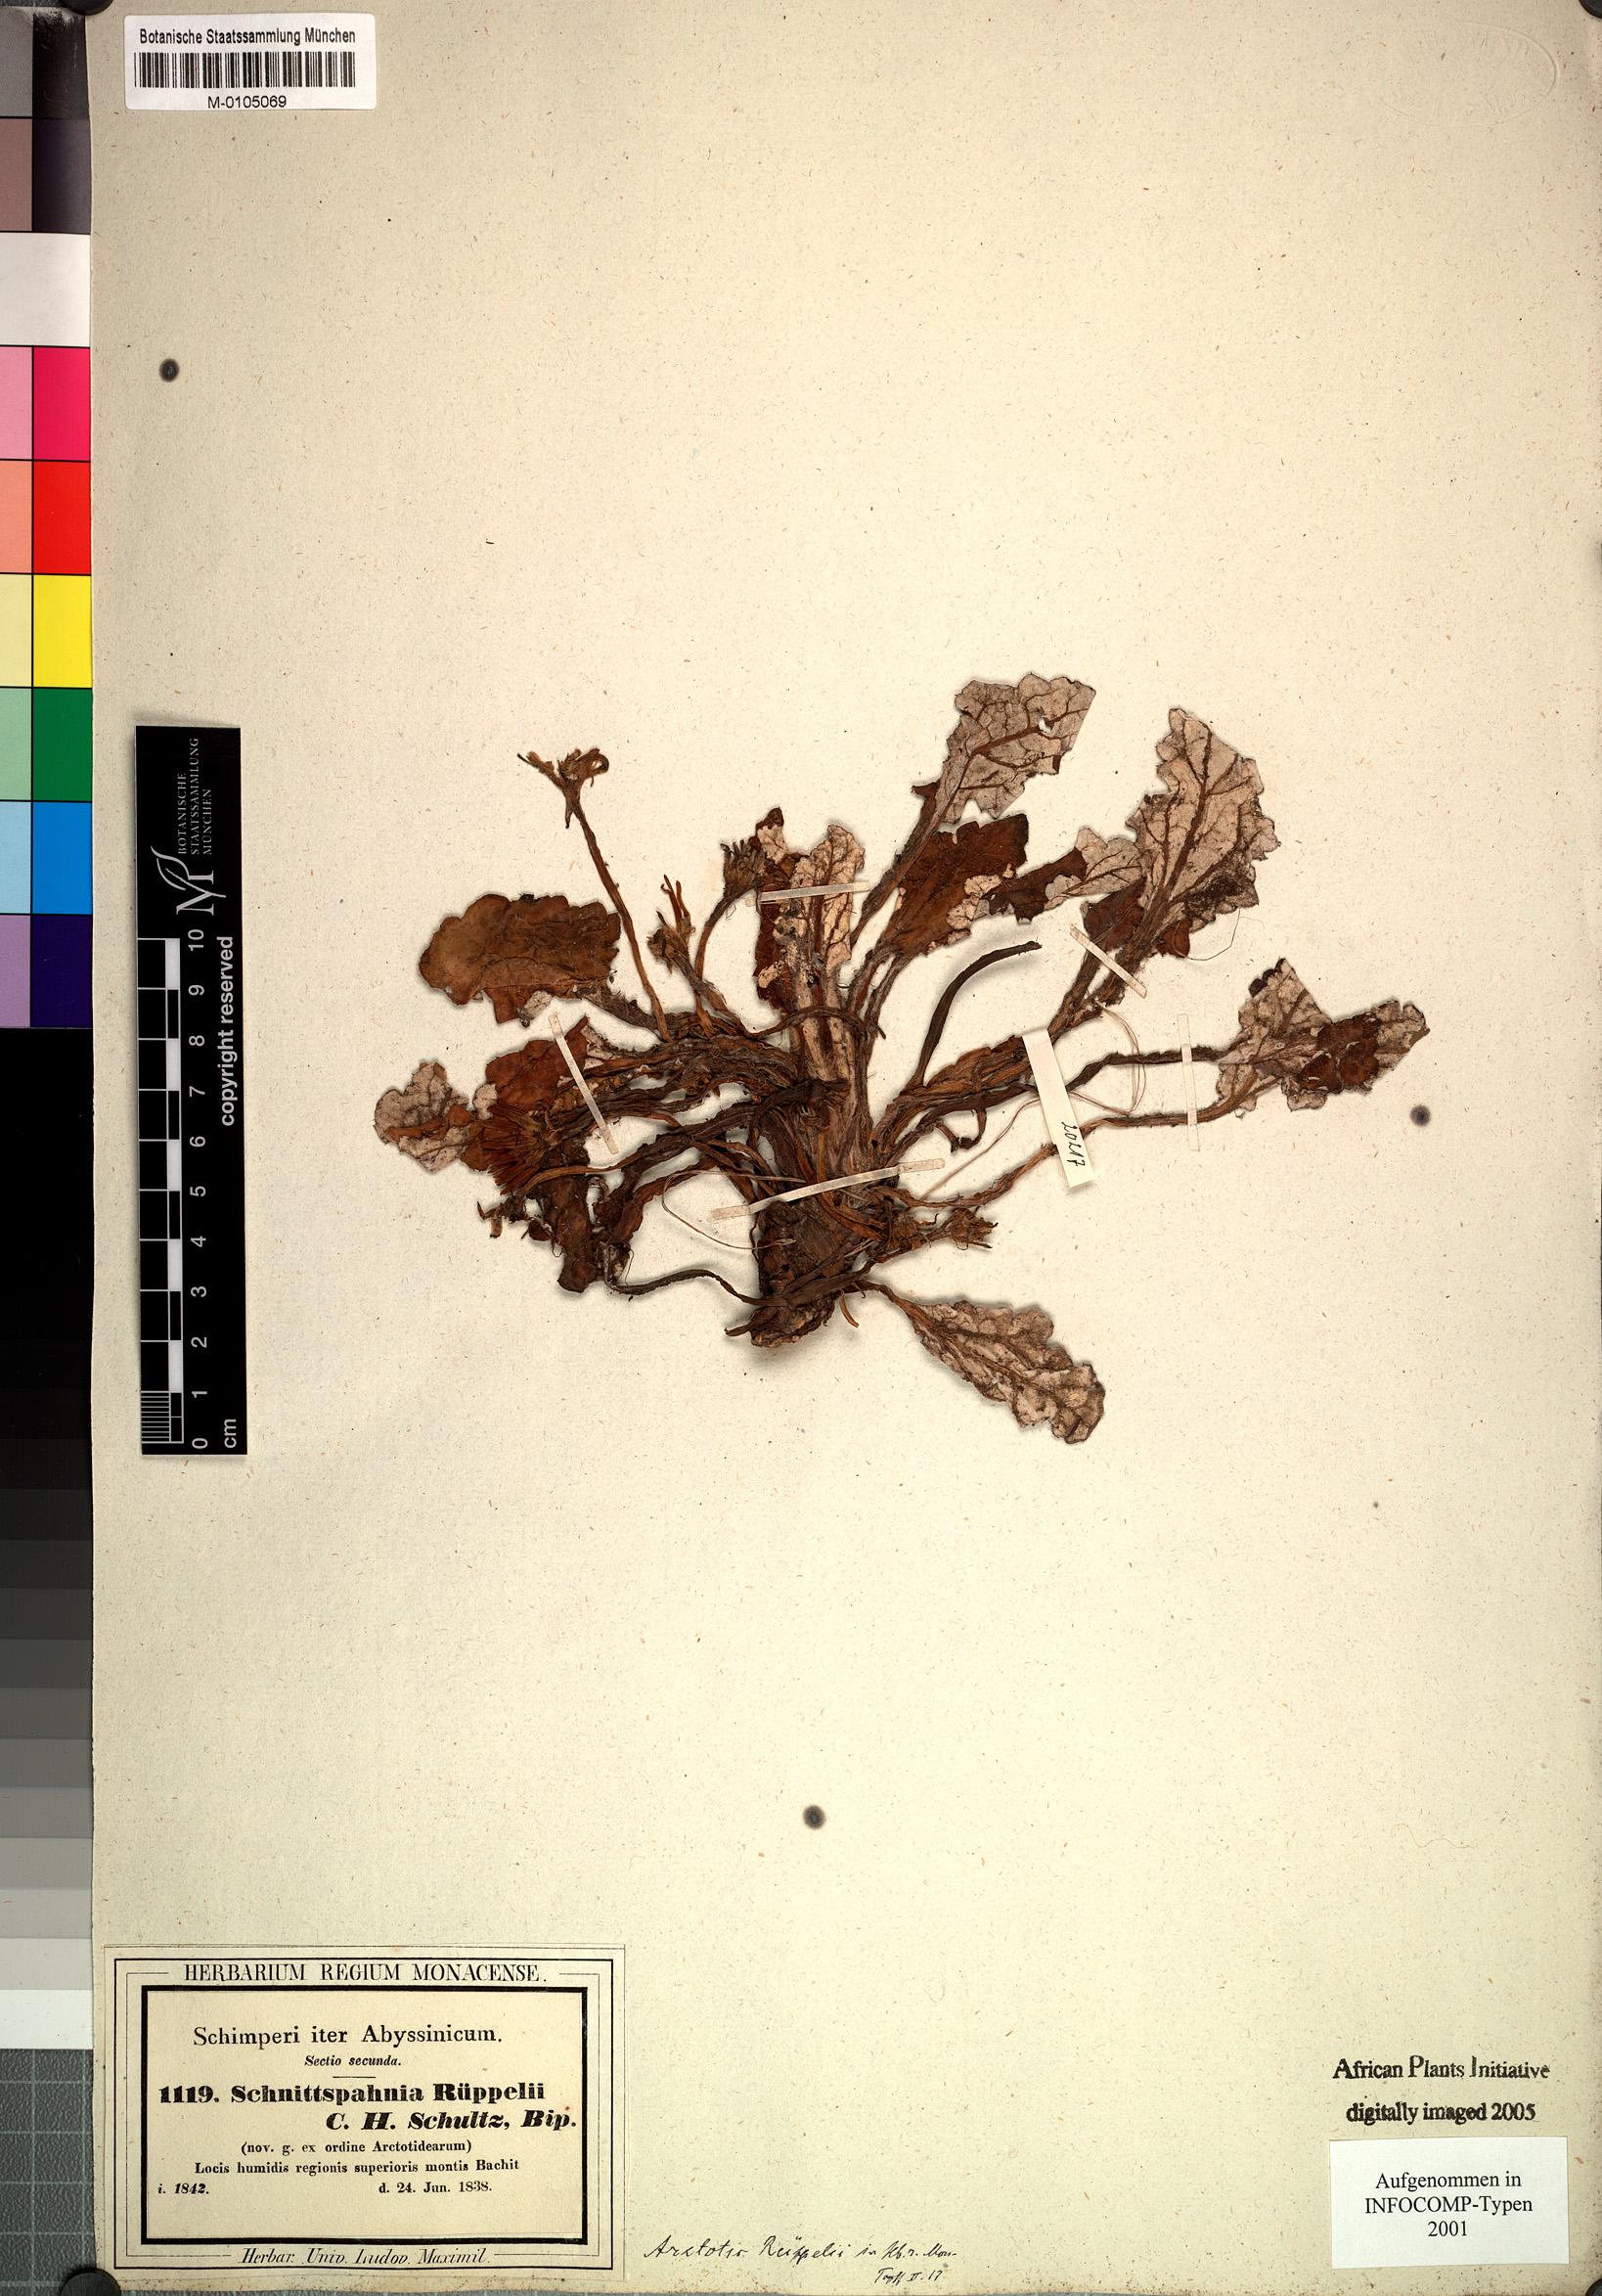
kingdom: Plantae
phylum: Tracheophyta
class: Magnoliopsida
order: Asterales
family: Asteraceae
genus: Haplocarpha
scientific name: Haplocarpha rueppelii
